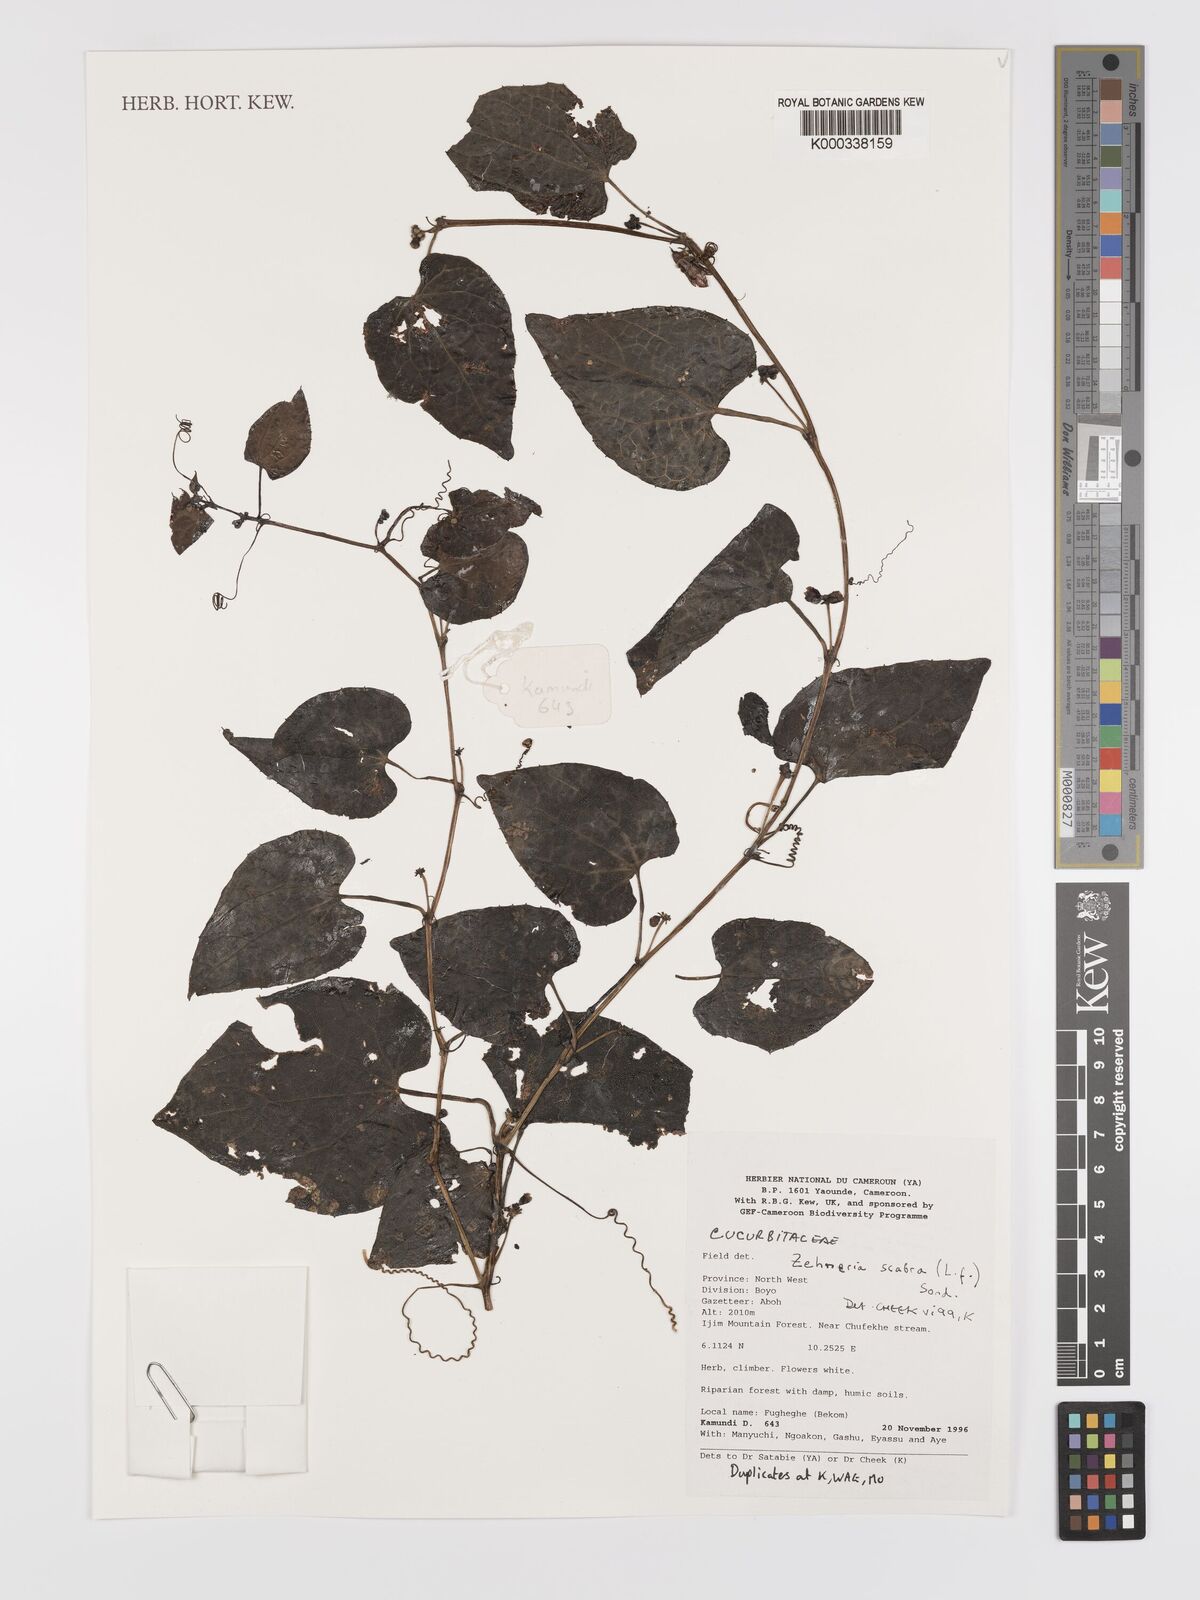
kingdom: Plantae
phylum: Tracheophyta
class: Magnoliopsida
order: Cucurbitales
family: Cucurbitaceae
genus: Zehneria
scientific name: Zehneria scabra
